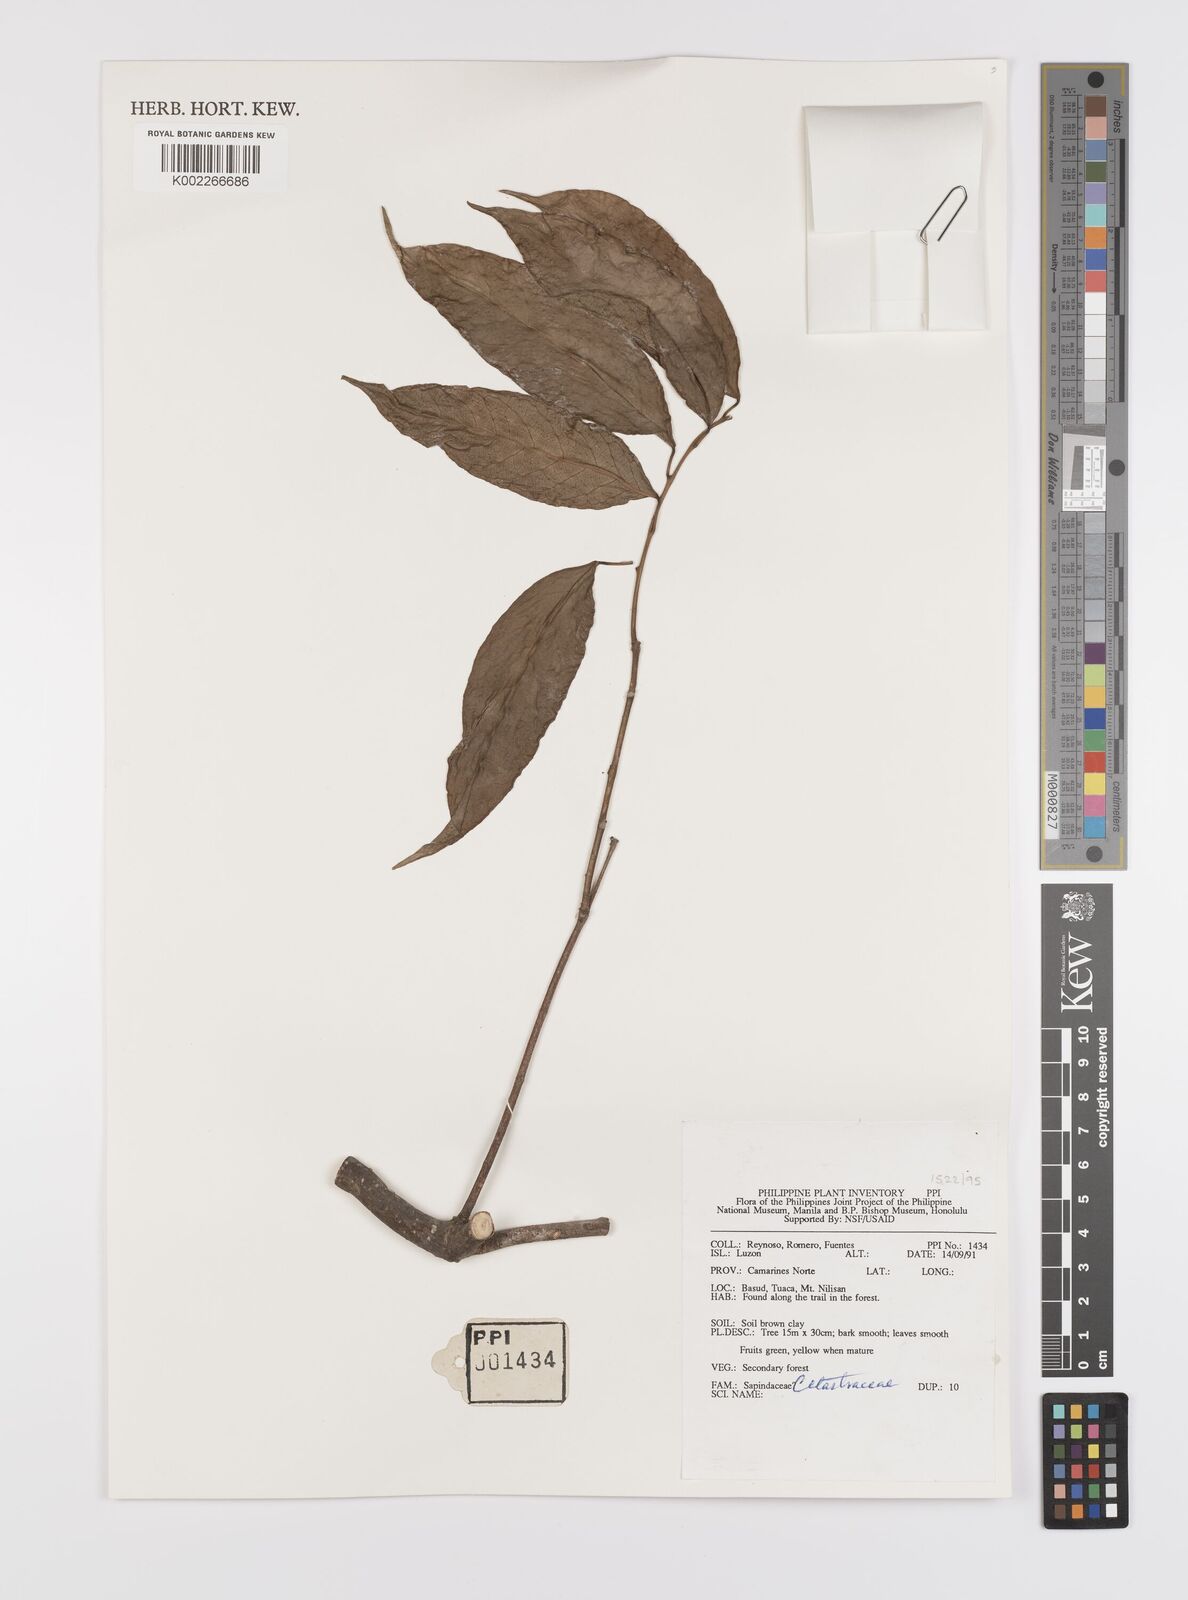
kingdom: Plantae
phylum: Tracheophyta
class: Magnoliopsida
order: Celastrales
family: Celastraceae
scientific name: Celastraceae
